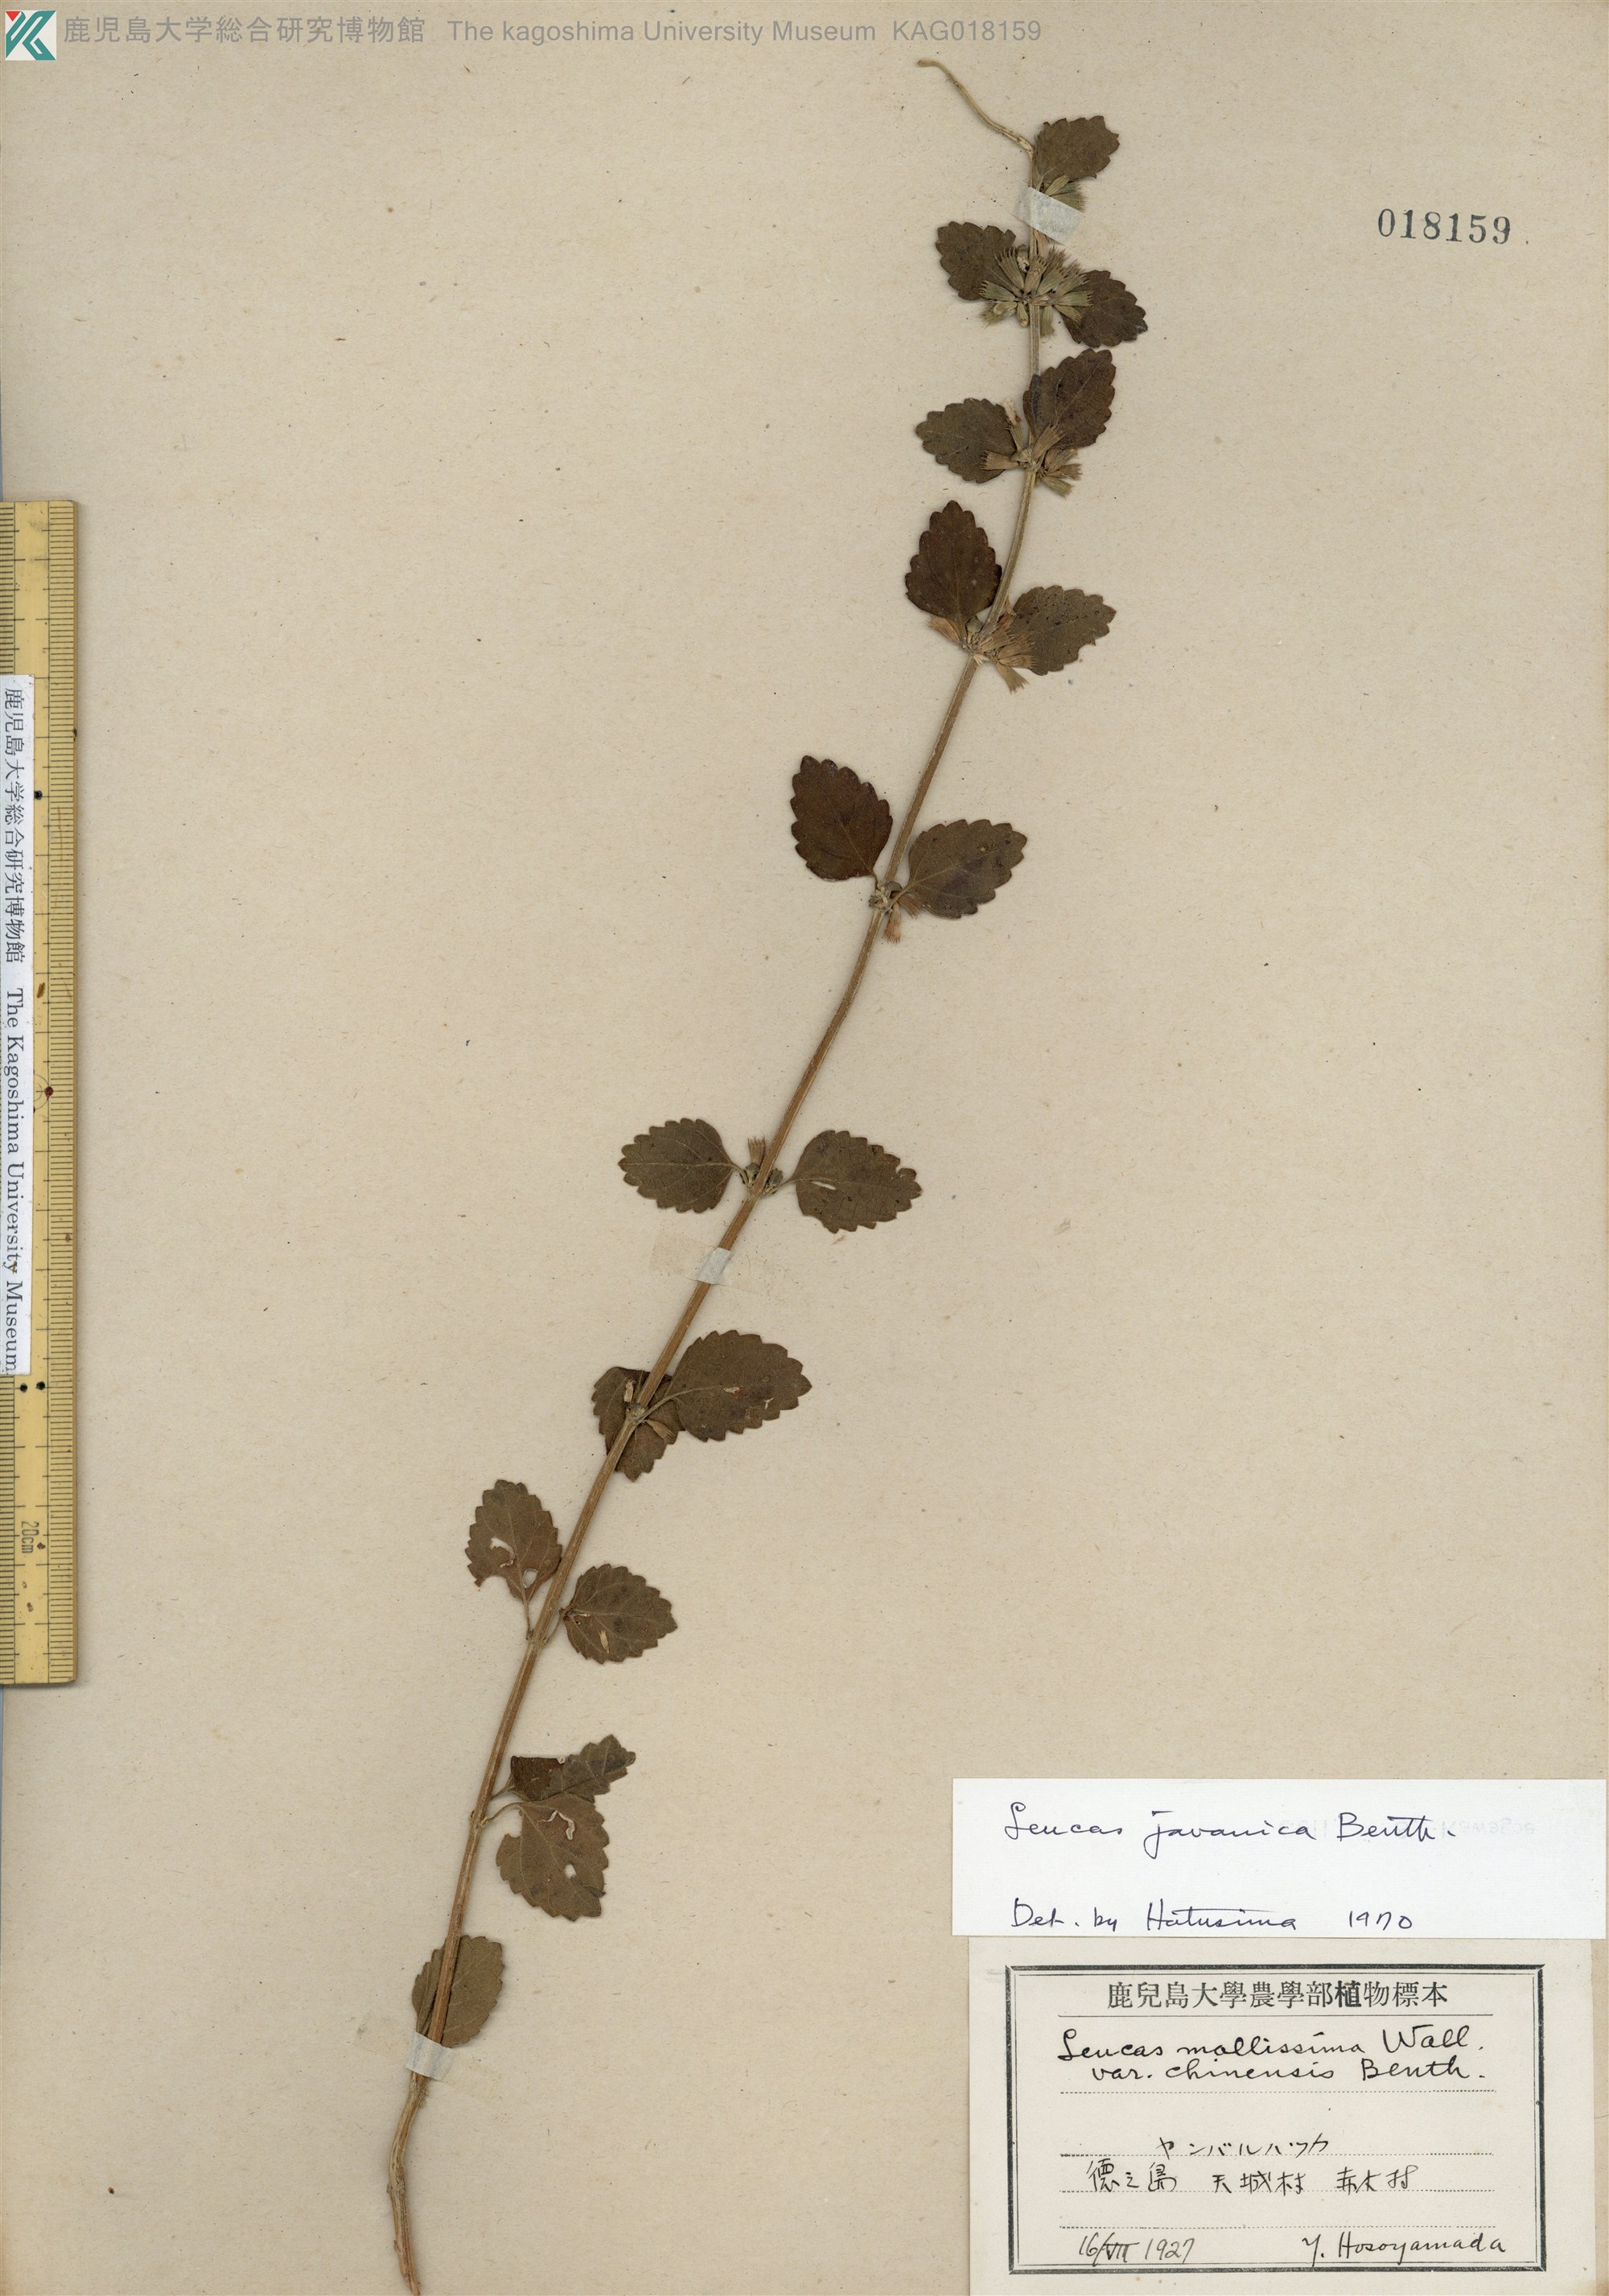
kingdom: Plantae
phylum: Tracheophyta
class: Magnoliopsida
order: Lamiales
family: Lamiaceae
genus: Leucas
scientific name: Leucas chinensis
